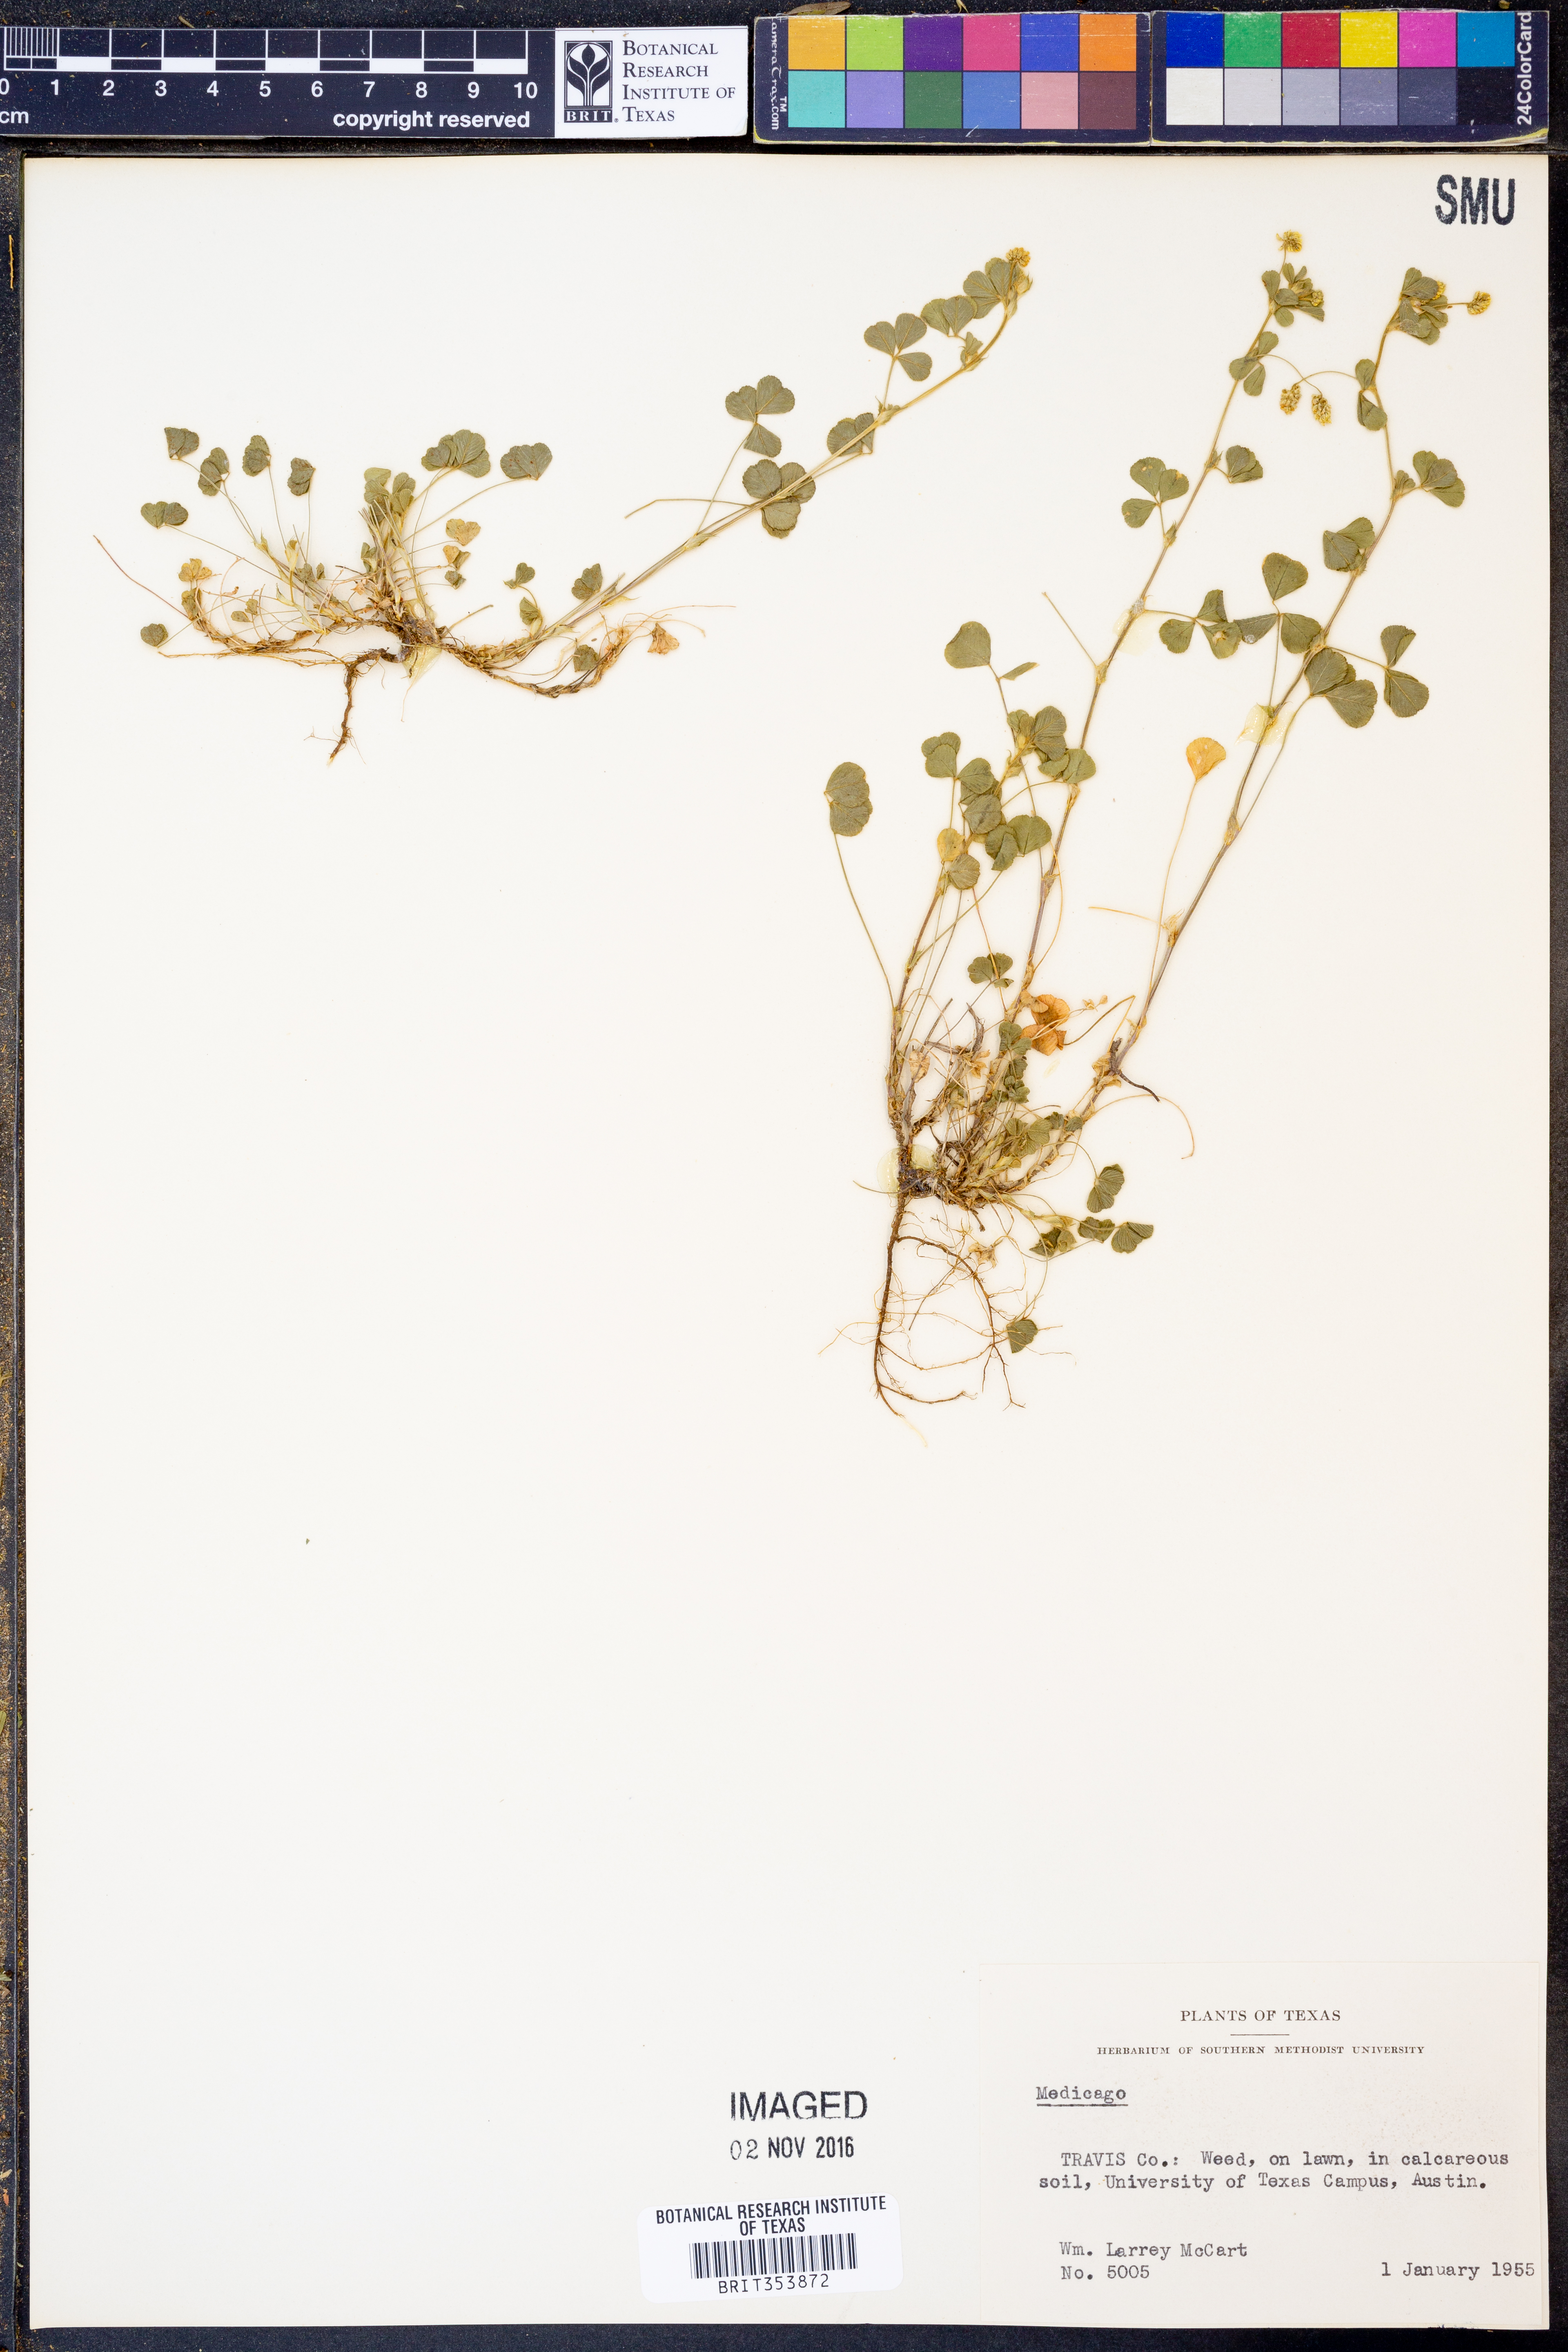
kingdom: Plantae
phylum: Tracheophyta
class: Magnoliopsida
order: Fabales
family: Fabaceae
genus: Medicago
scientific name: Medicago
